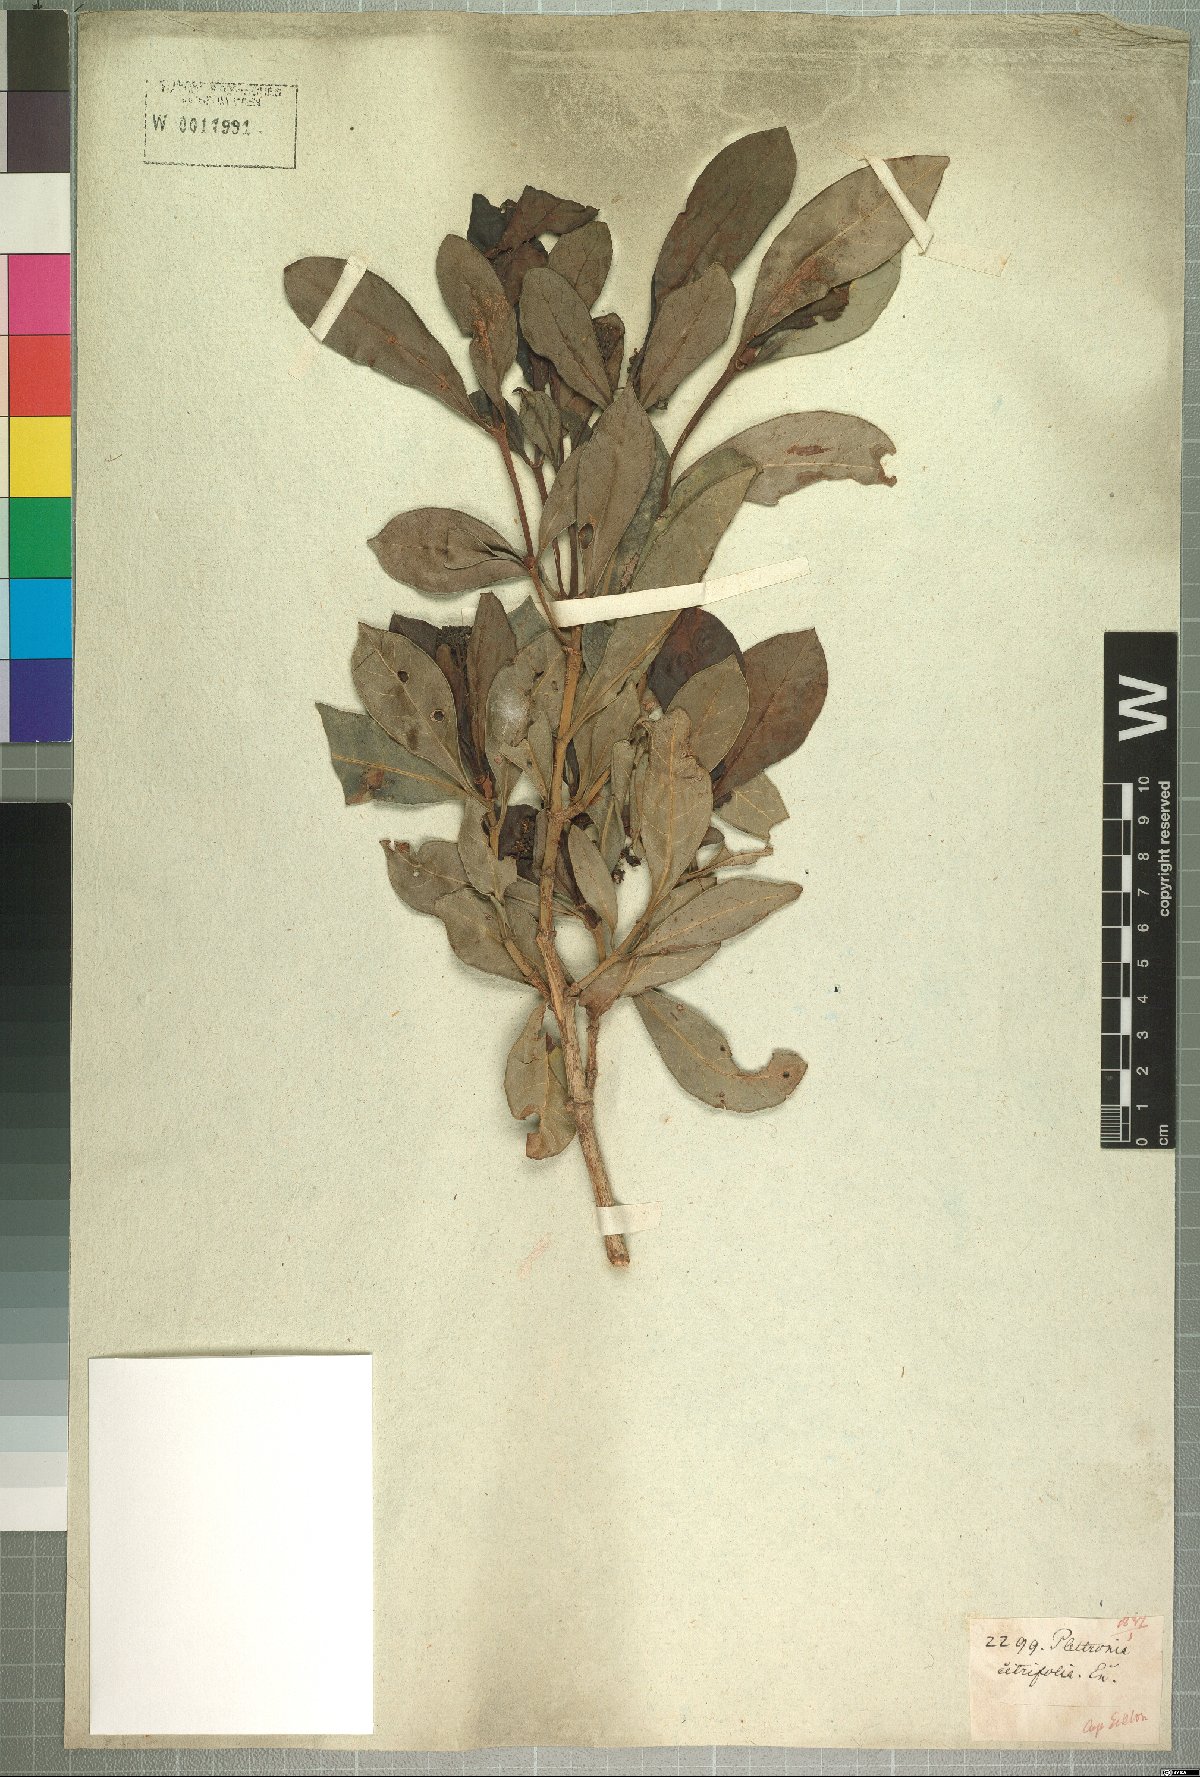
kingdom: Plantae
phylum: Tracheophyta
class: Magnoliopsida
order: Gentianales
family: Rubiaceae
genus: Psychotria
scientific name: Psychotria capensis
